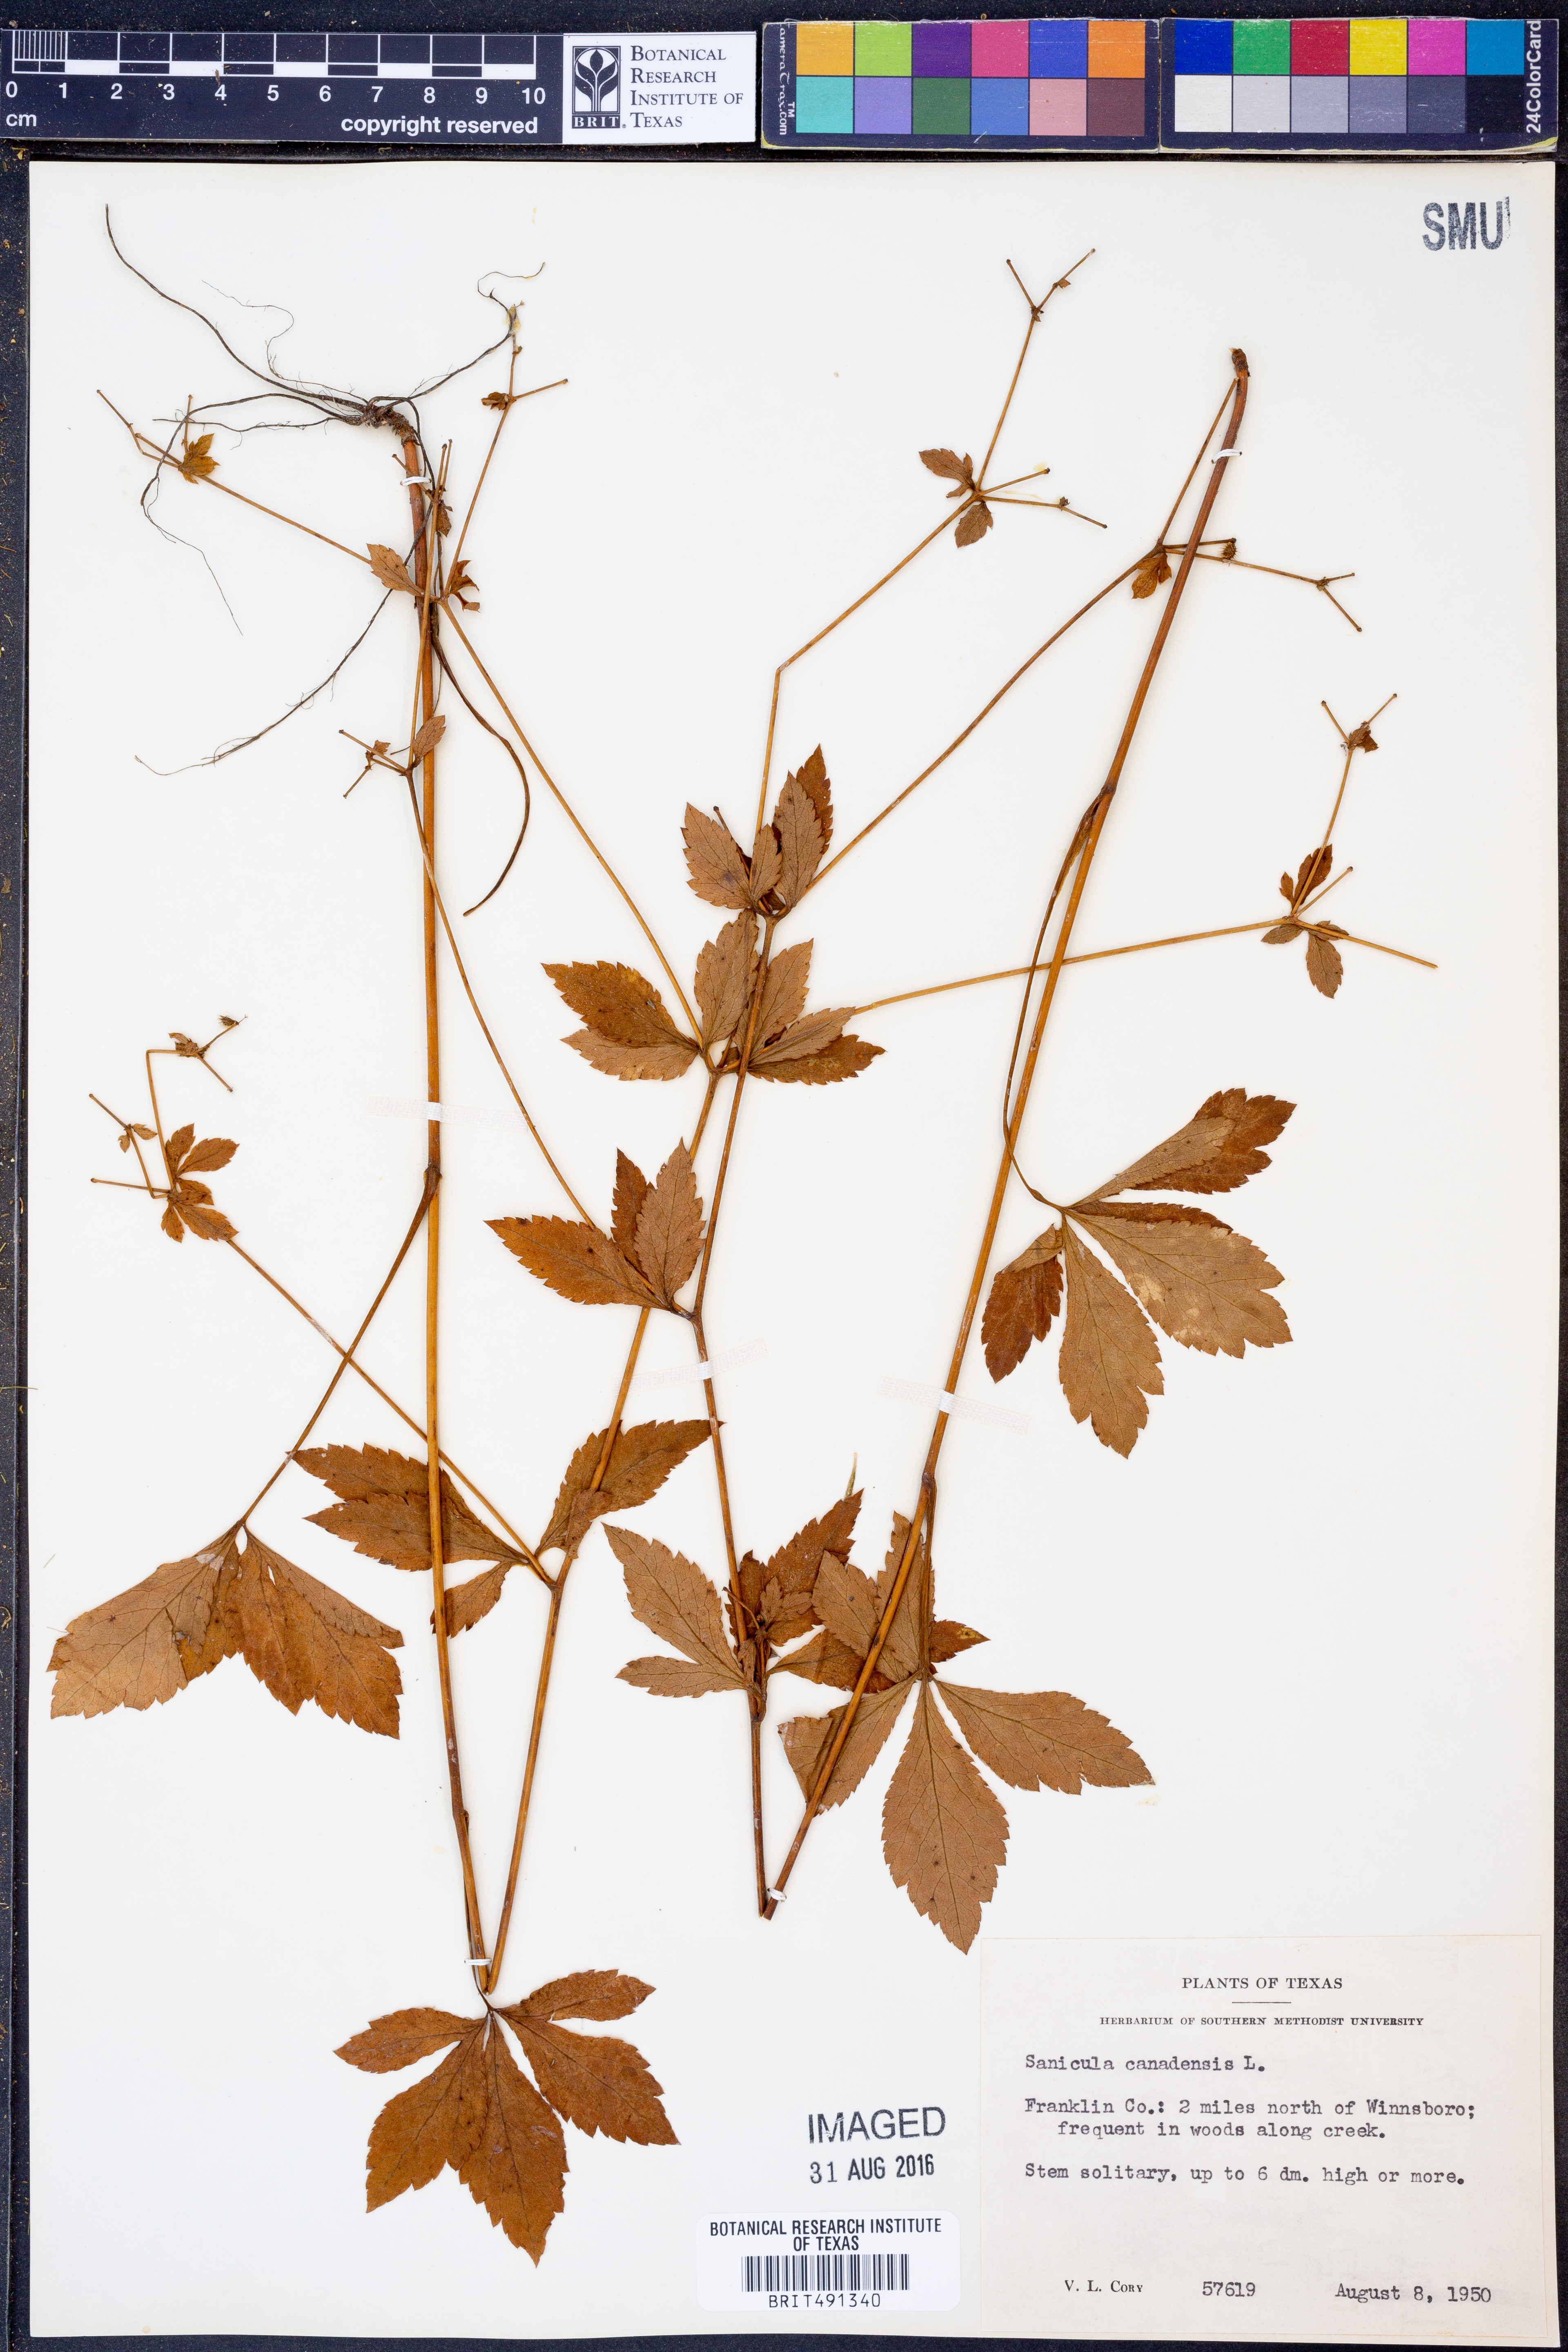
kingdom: Plantae
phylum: Tracheophyta
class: Magnoliopsida
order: Apiales
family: Apiaceae
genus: Sanicula
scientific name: Sanicula canadensis
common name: Canada sanicle
